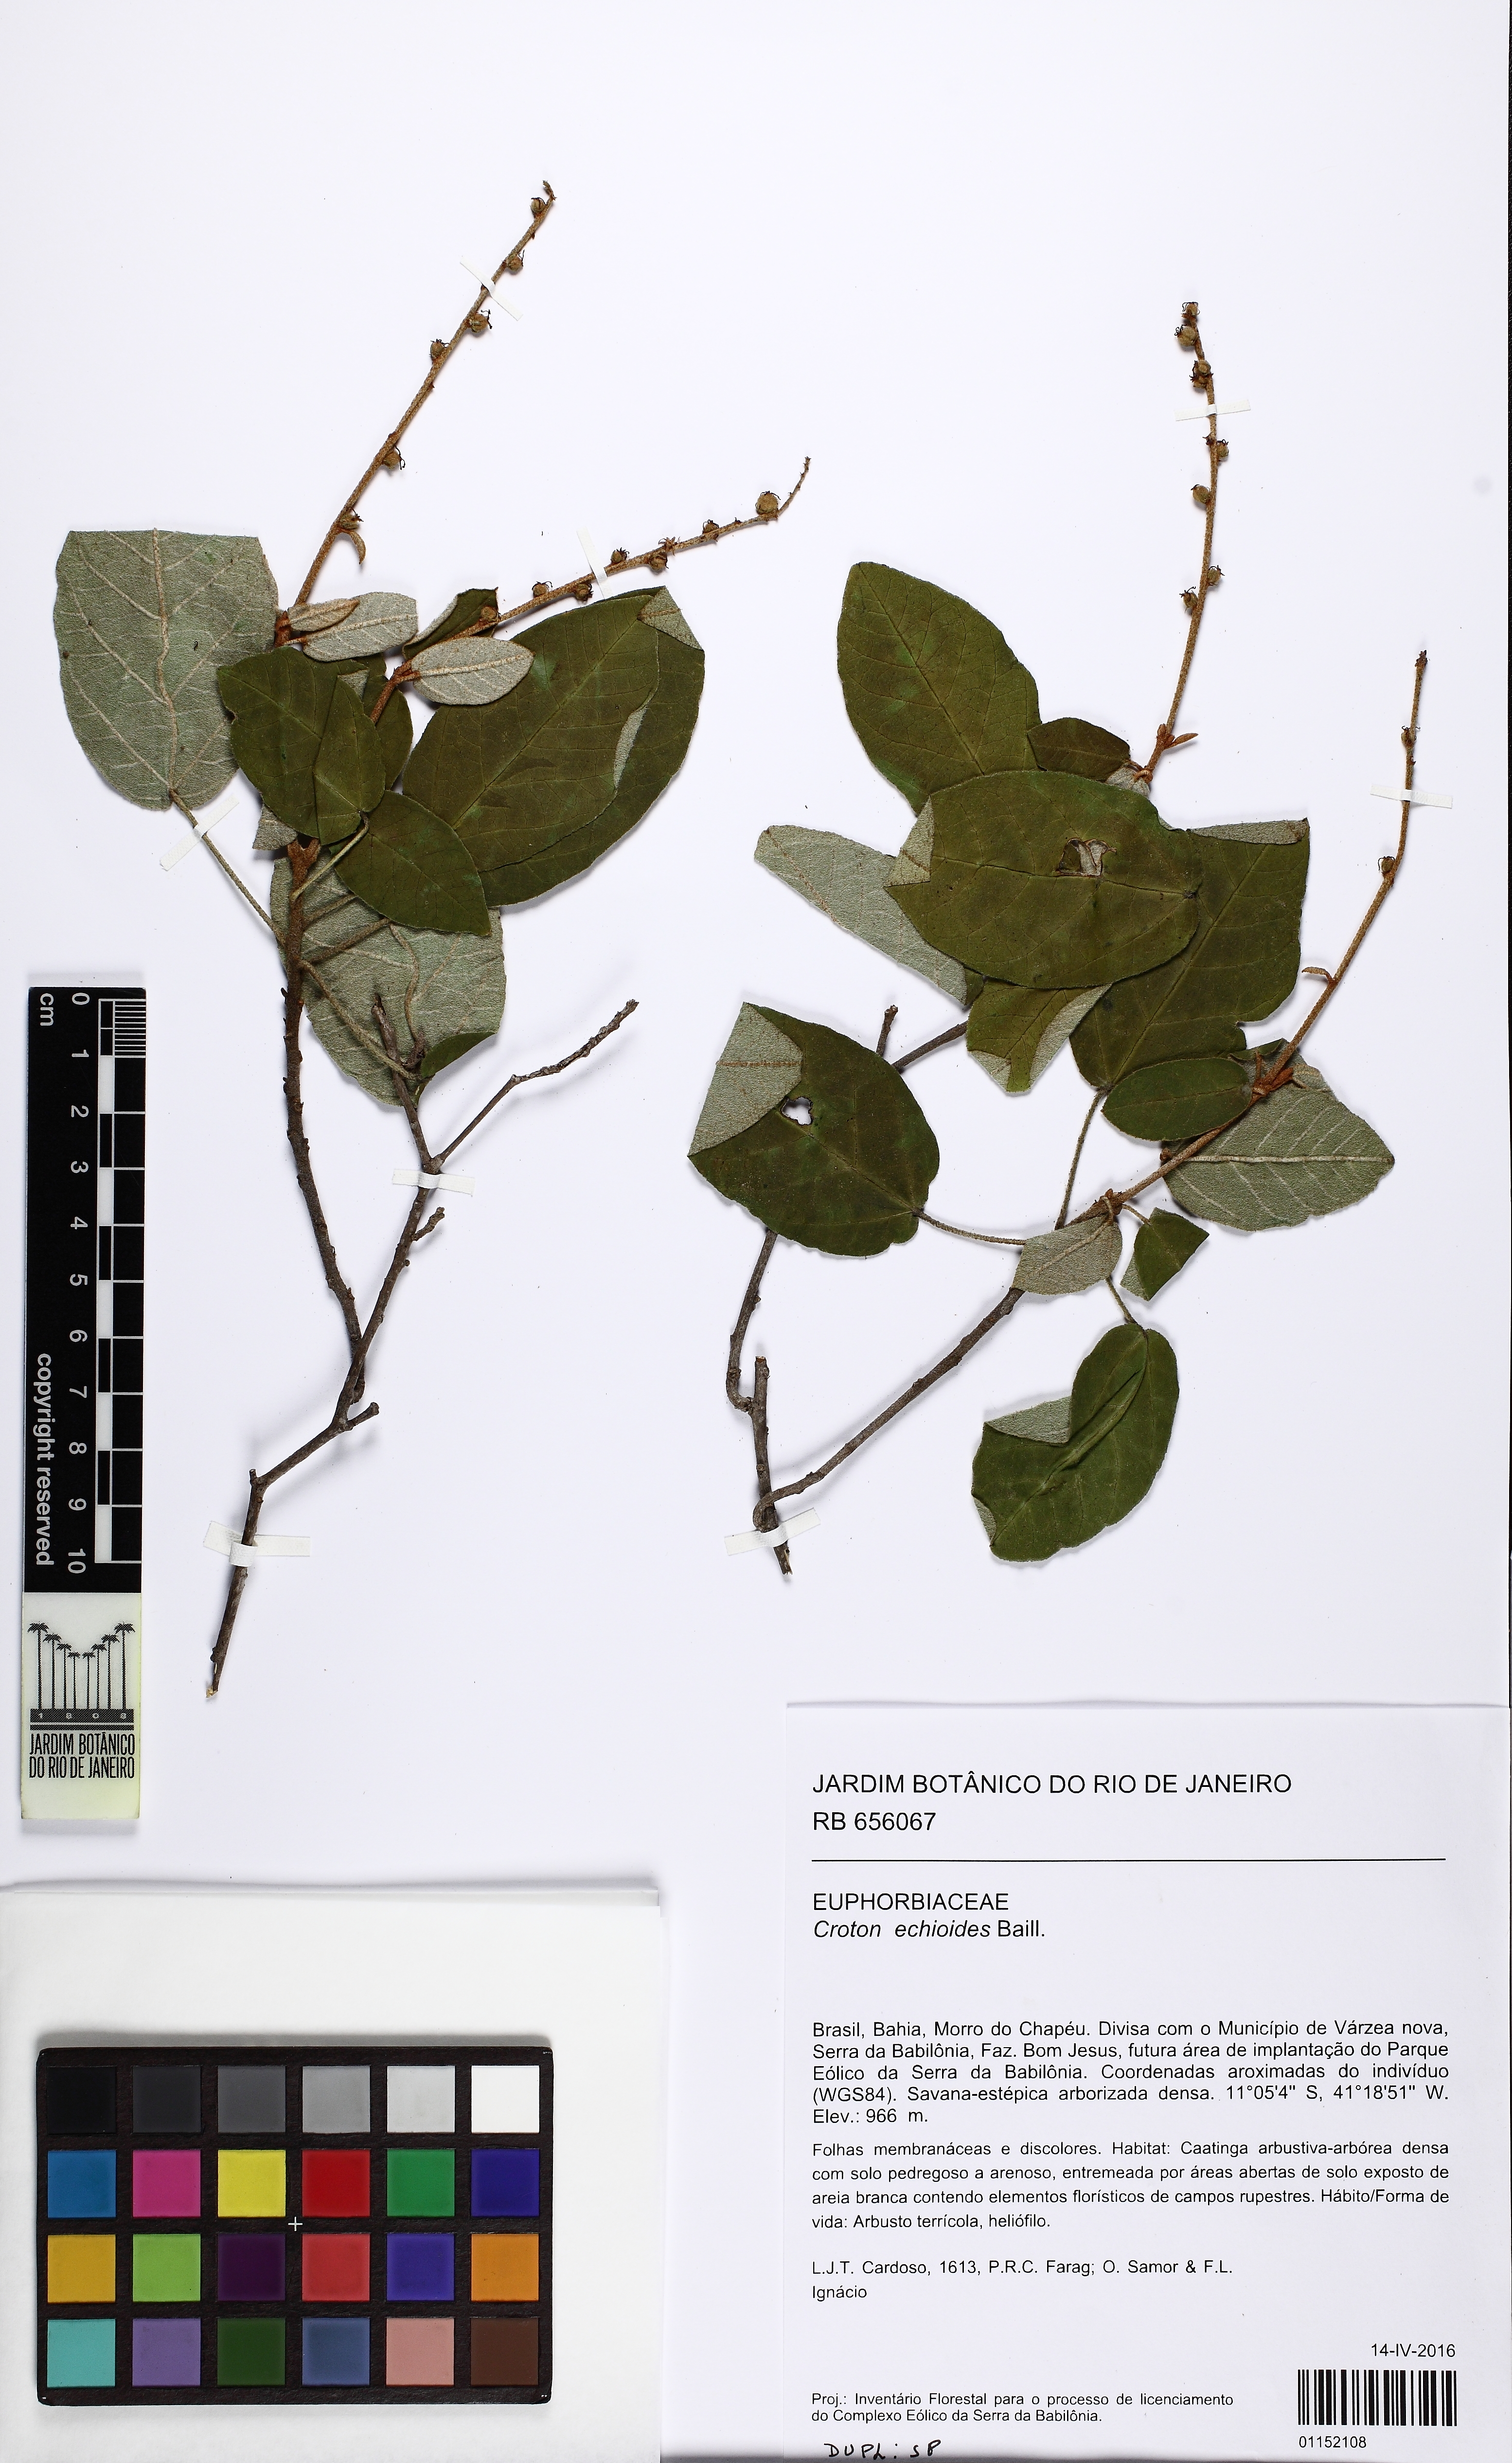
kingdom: Plantae
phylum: Tracheophyta
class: Magnoliopsida
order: Malpighiales
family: Euphorbiaceae
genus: Croton
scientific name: Croton echioides
